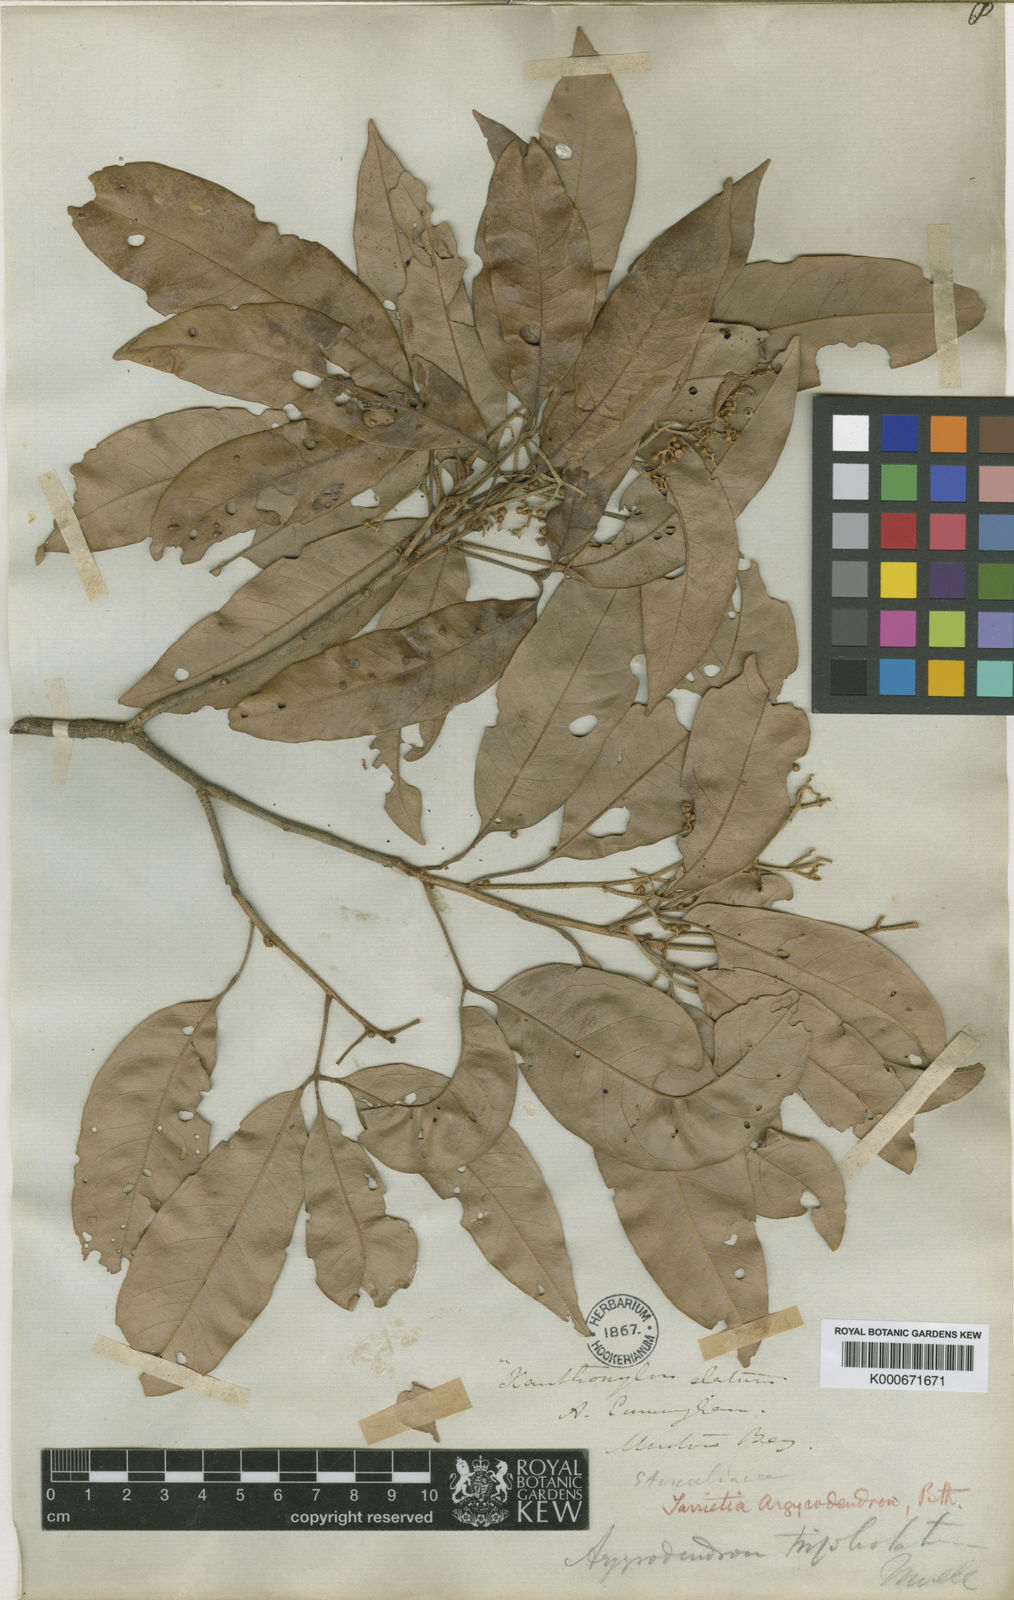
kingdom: Plantae
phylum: Tracheophyta
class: Magnoliopsida
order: Malvales
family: Malvaceae
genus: Argyrodendron
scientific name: Argyrodendron trifoliolatum
